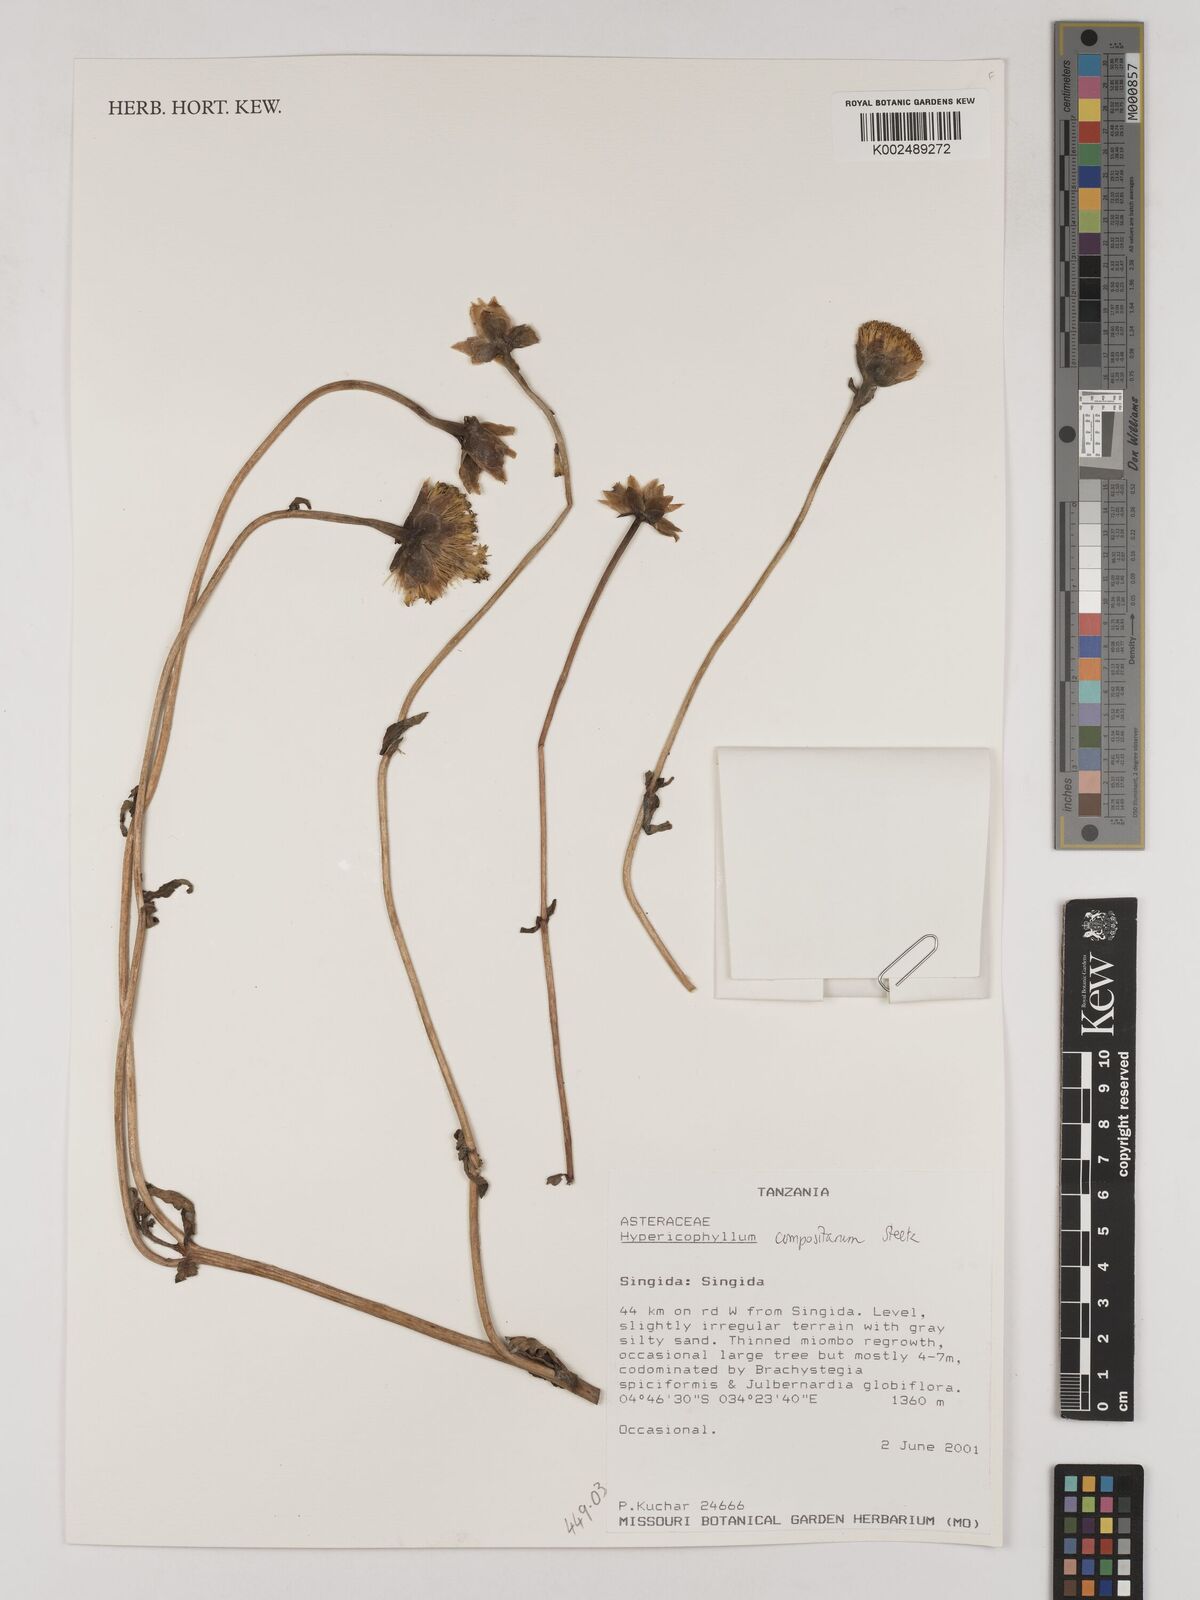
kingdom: Plantae
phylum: Tracheophyta
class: Magnoliopsida
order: Asterales
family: Asteraceae
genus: Hypericophyllum
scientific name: Hypericophyllum compositarum
